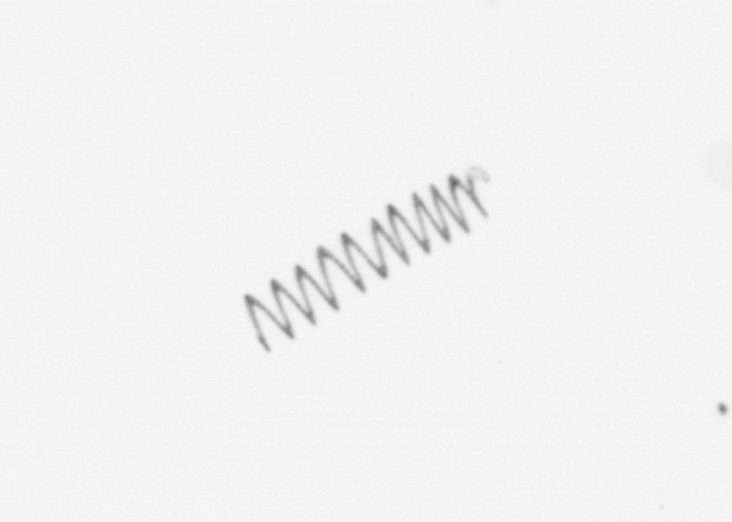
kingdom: Chromista
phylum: Ochrophyta
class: Bacillariophyceae
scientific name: Bacillariophyceae
